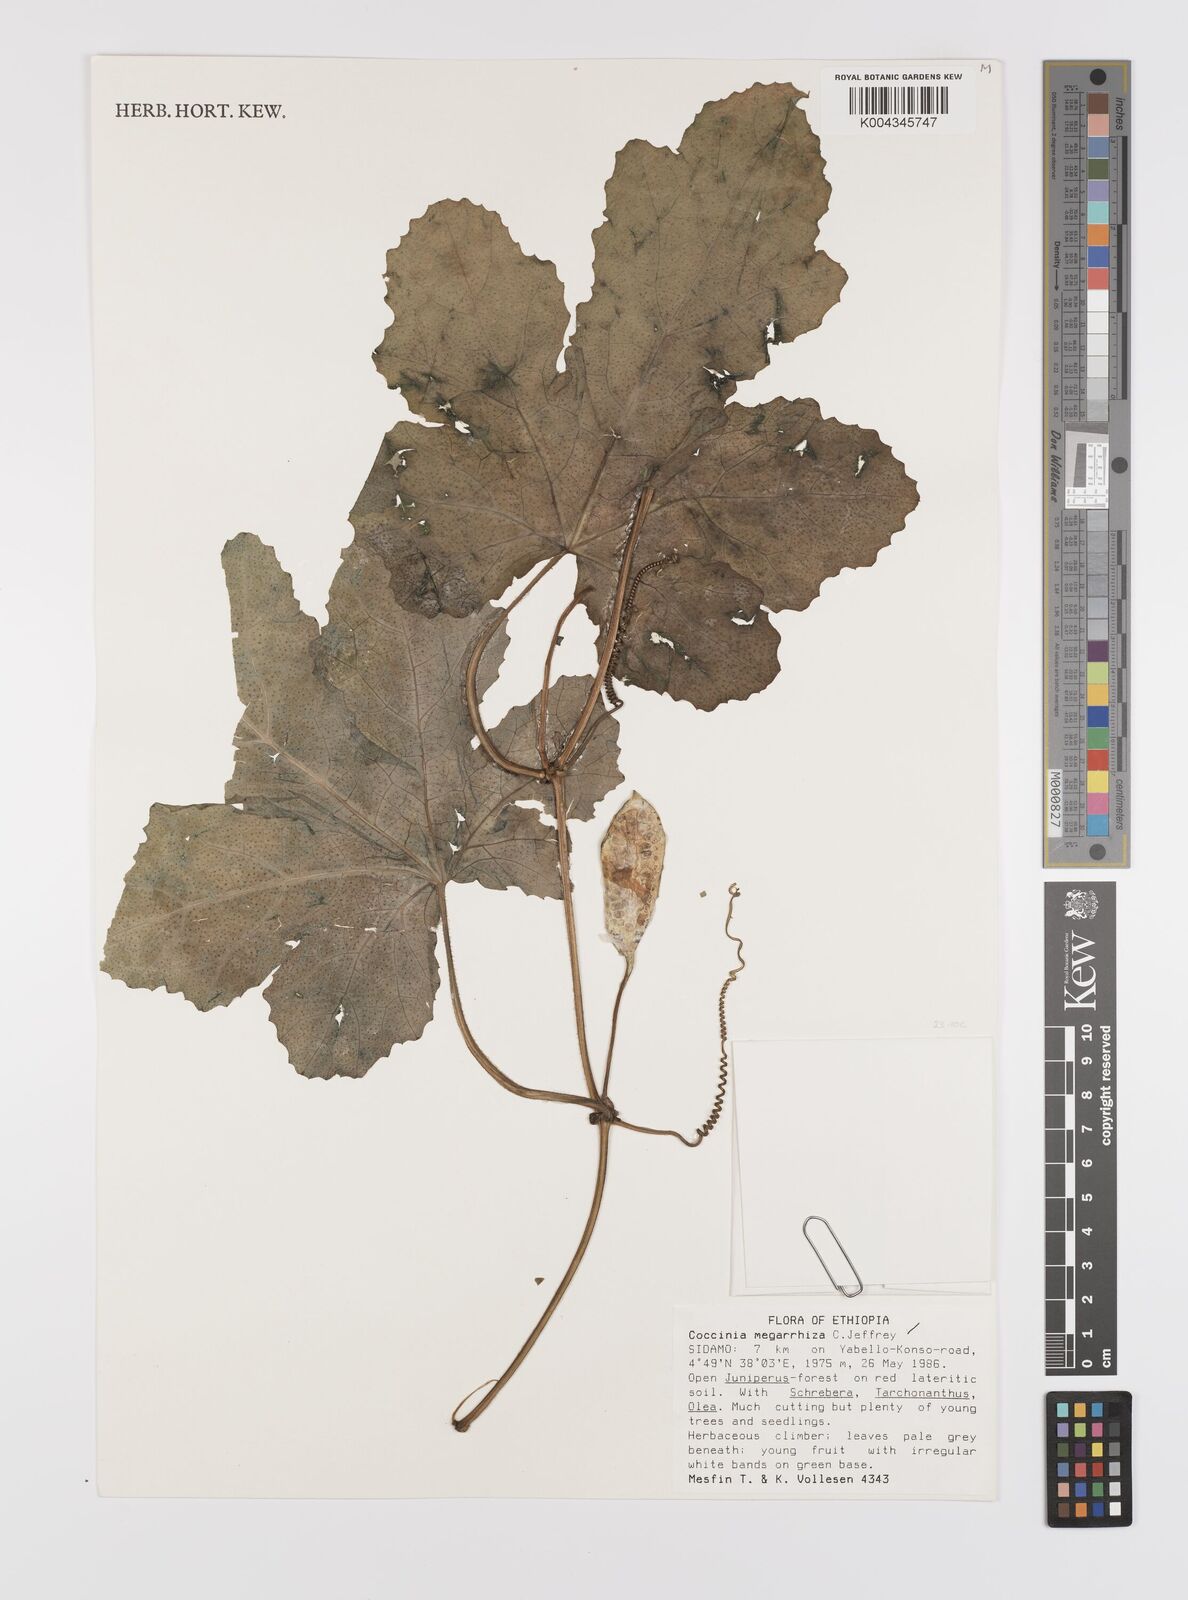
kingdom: Plantae
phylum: Tracheophyta
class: Magnoliopsida
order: Cucurbitales
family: Cucurbitaceae
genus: Coccinia
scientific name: Coccinia megarrhiza
